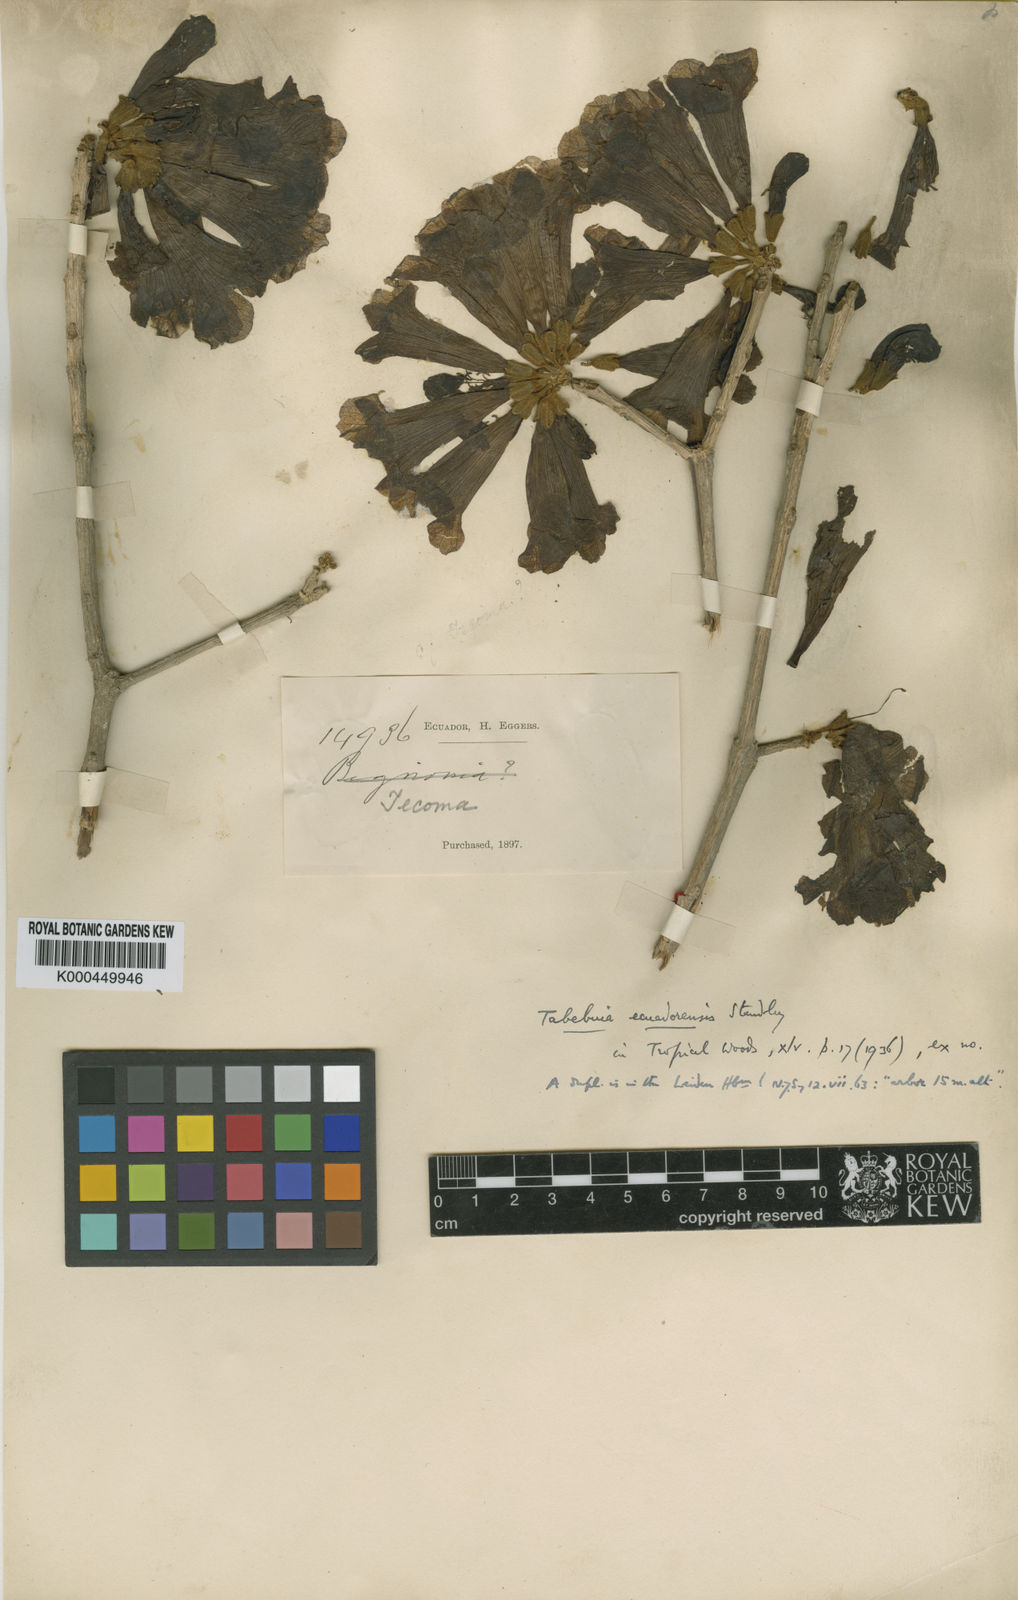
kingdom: Plantae
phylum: Tracheophyta
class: Magnoliopsida
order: Lamiales
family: Bignoniaceae
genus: Handroanthus
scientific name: Handroanthus billbergii
